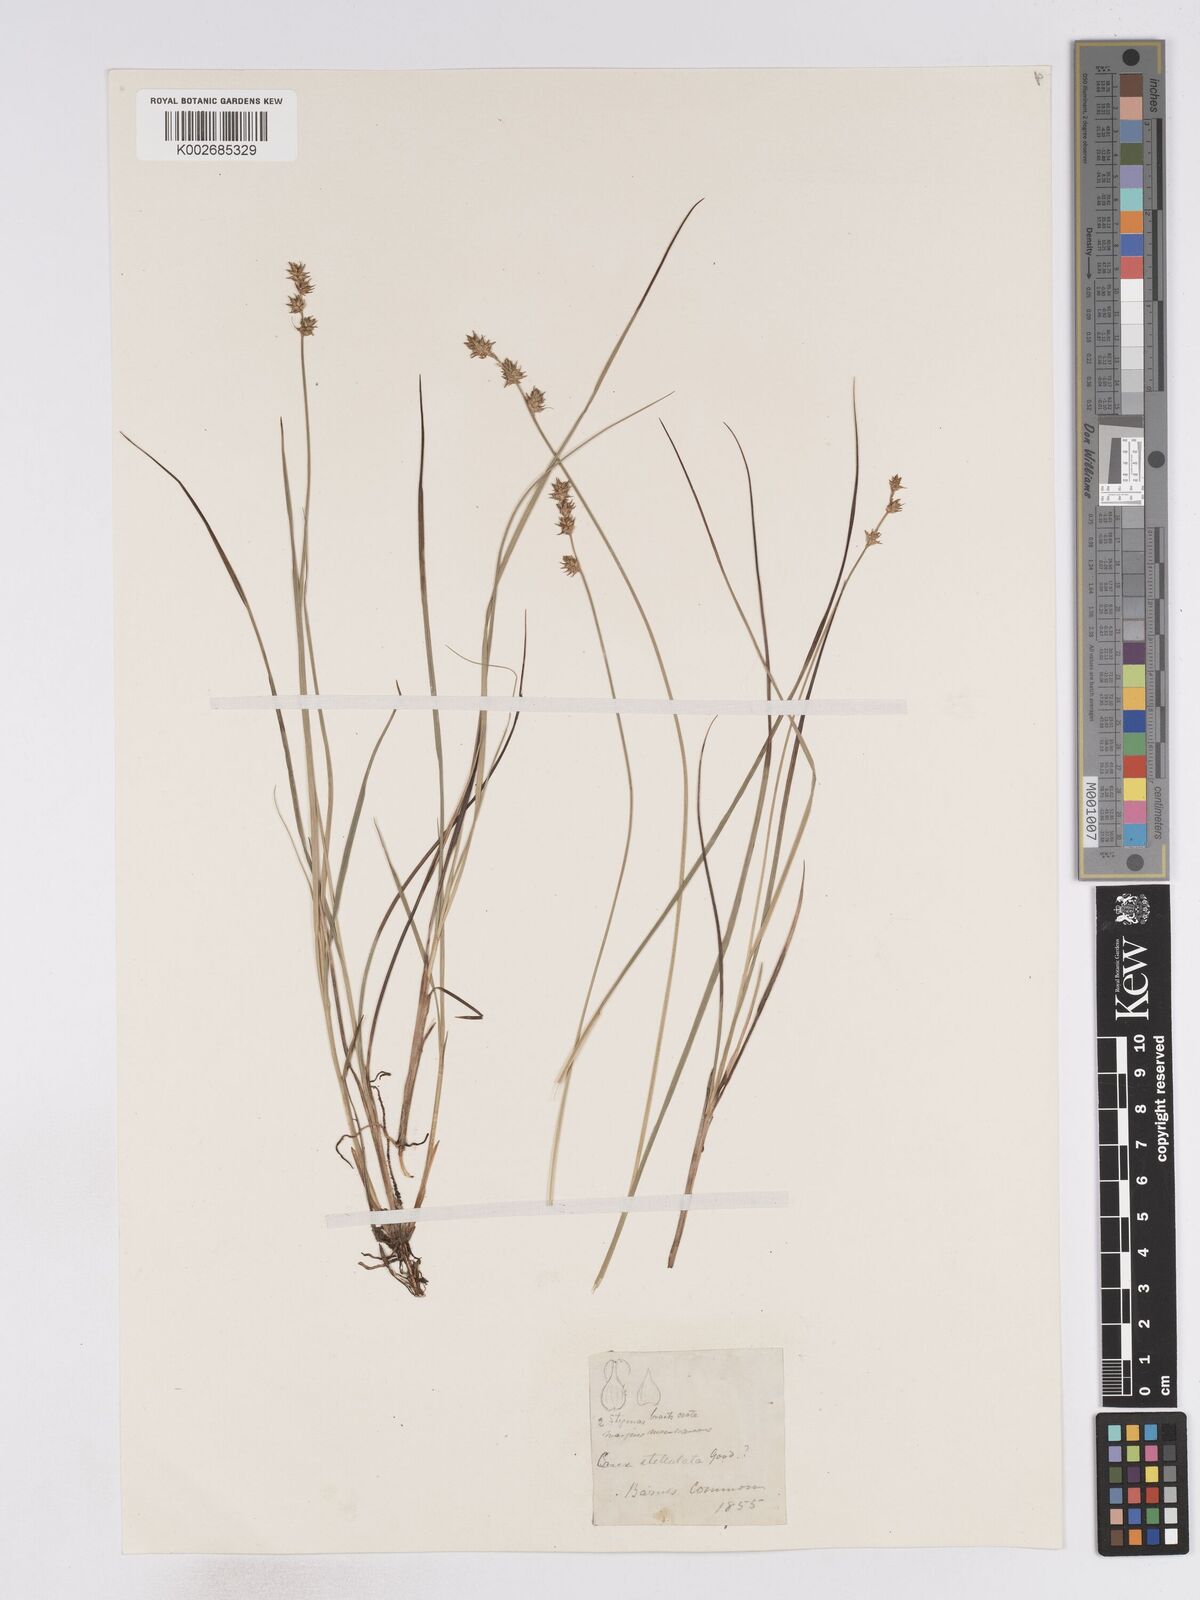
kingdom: Plantae
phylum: Tracheophyta
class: Liliopsida
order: Poales
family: Cyperaceae
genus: Carex
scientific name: Carex echinata
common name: Star sedge
